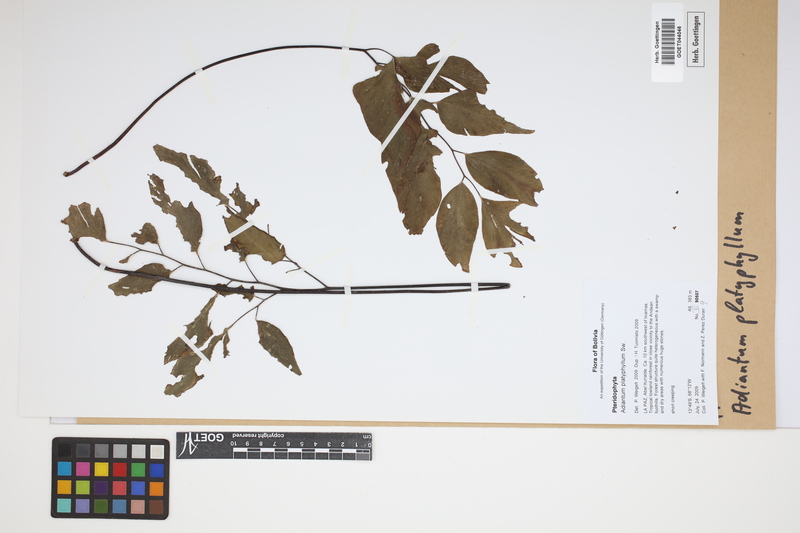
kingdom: Plantae
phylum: Tracheophyta
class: Polypodiopsida
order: Polypodiales
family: Pteridaceae
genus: Adiantum
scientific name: Adiantum platyphyllum
